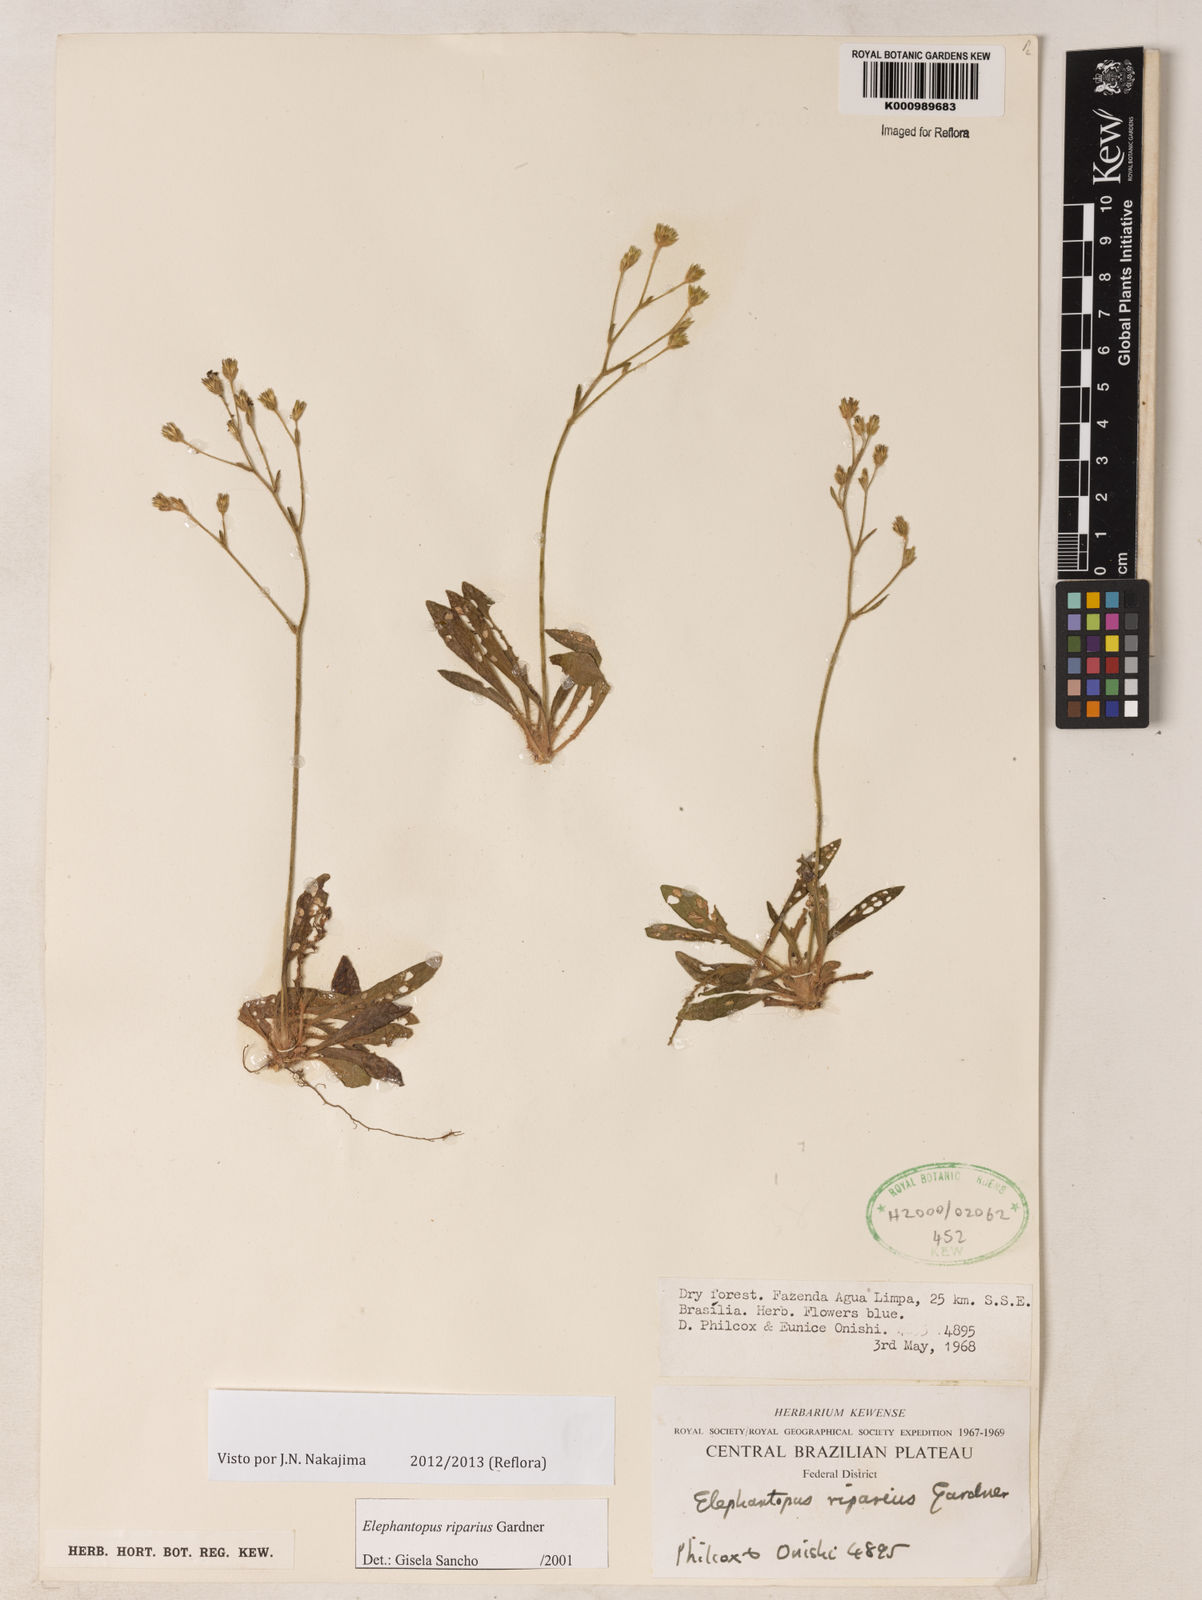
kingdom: Plantae
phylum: Tracheophyta
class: Magnoliopsida
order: Asterales
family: Asteraceae
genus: Elephantopus
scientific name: Elephantopus riparius
